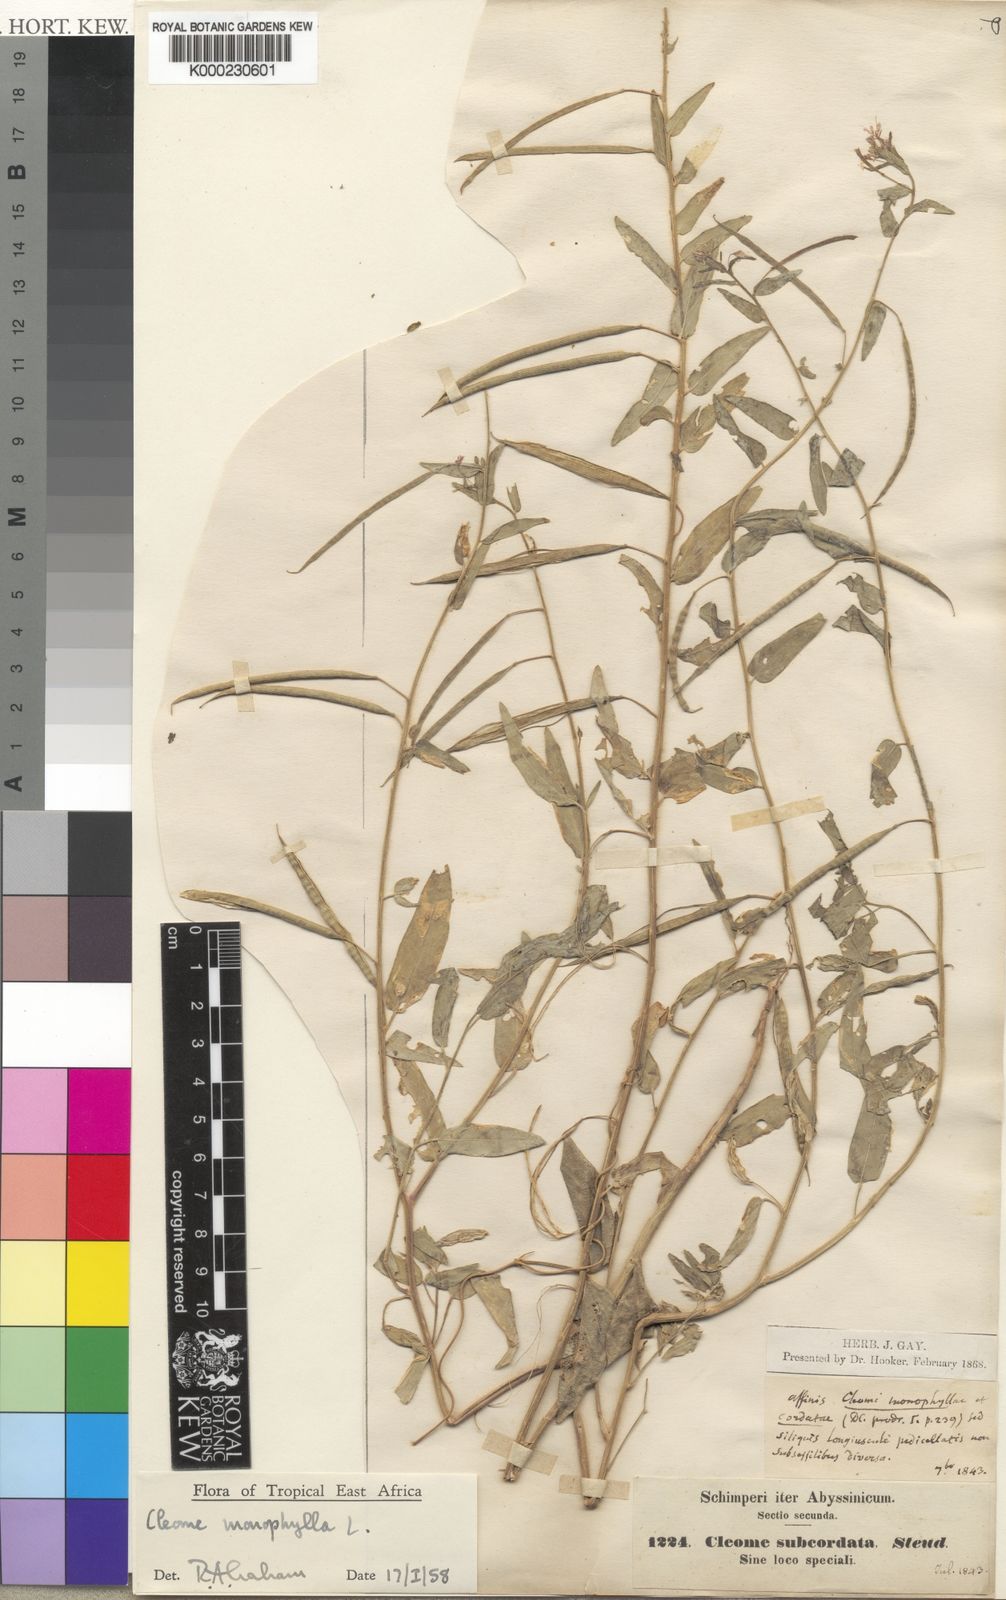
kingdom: Plantae
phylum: Tracheophyta
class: Magnoliopsida
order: Brassicales
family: Cleomaceae
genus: Sieruela
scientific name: Sieruela monophylla
